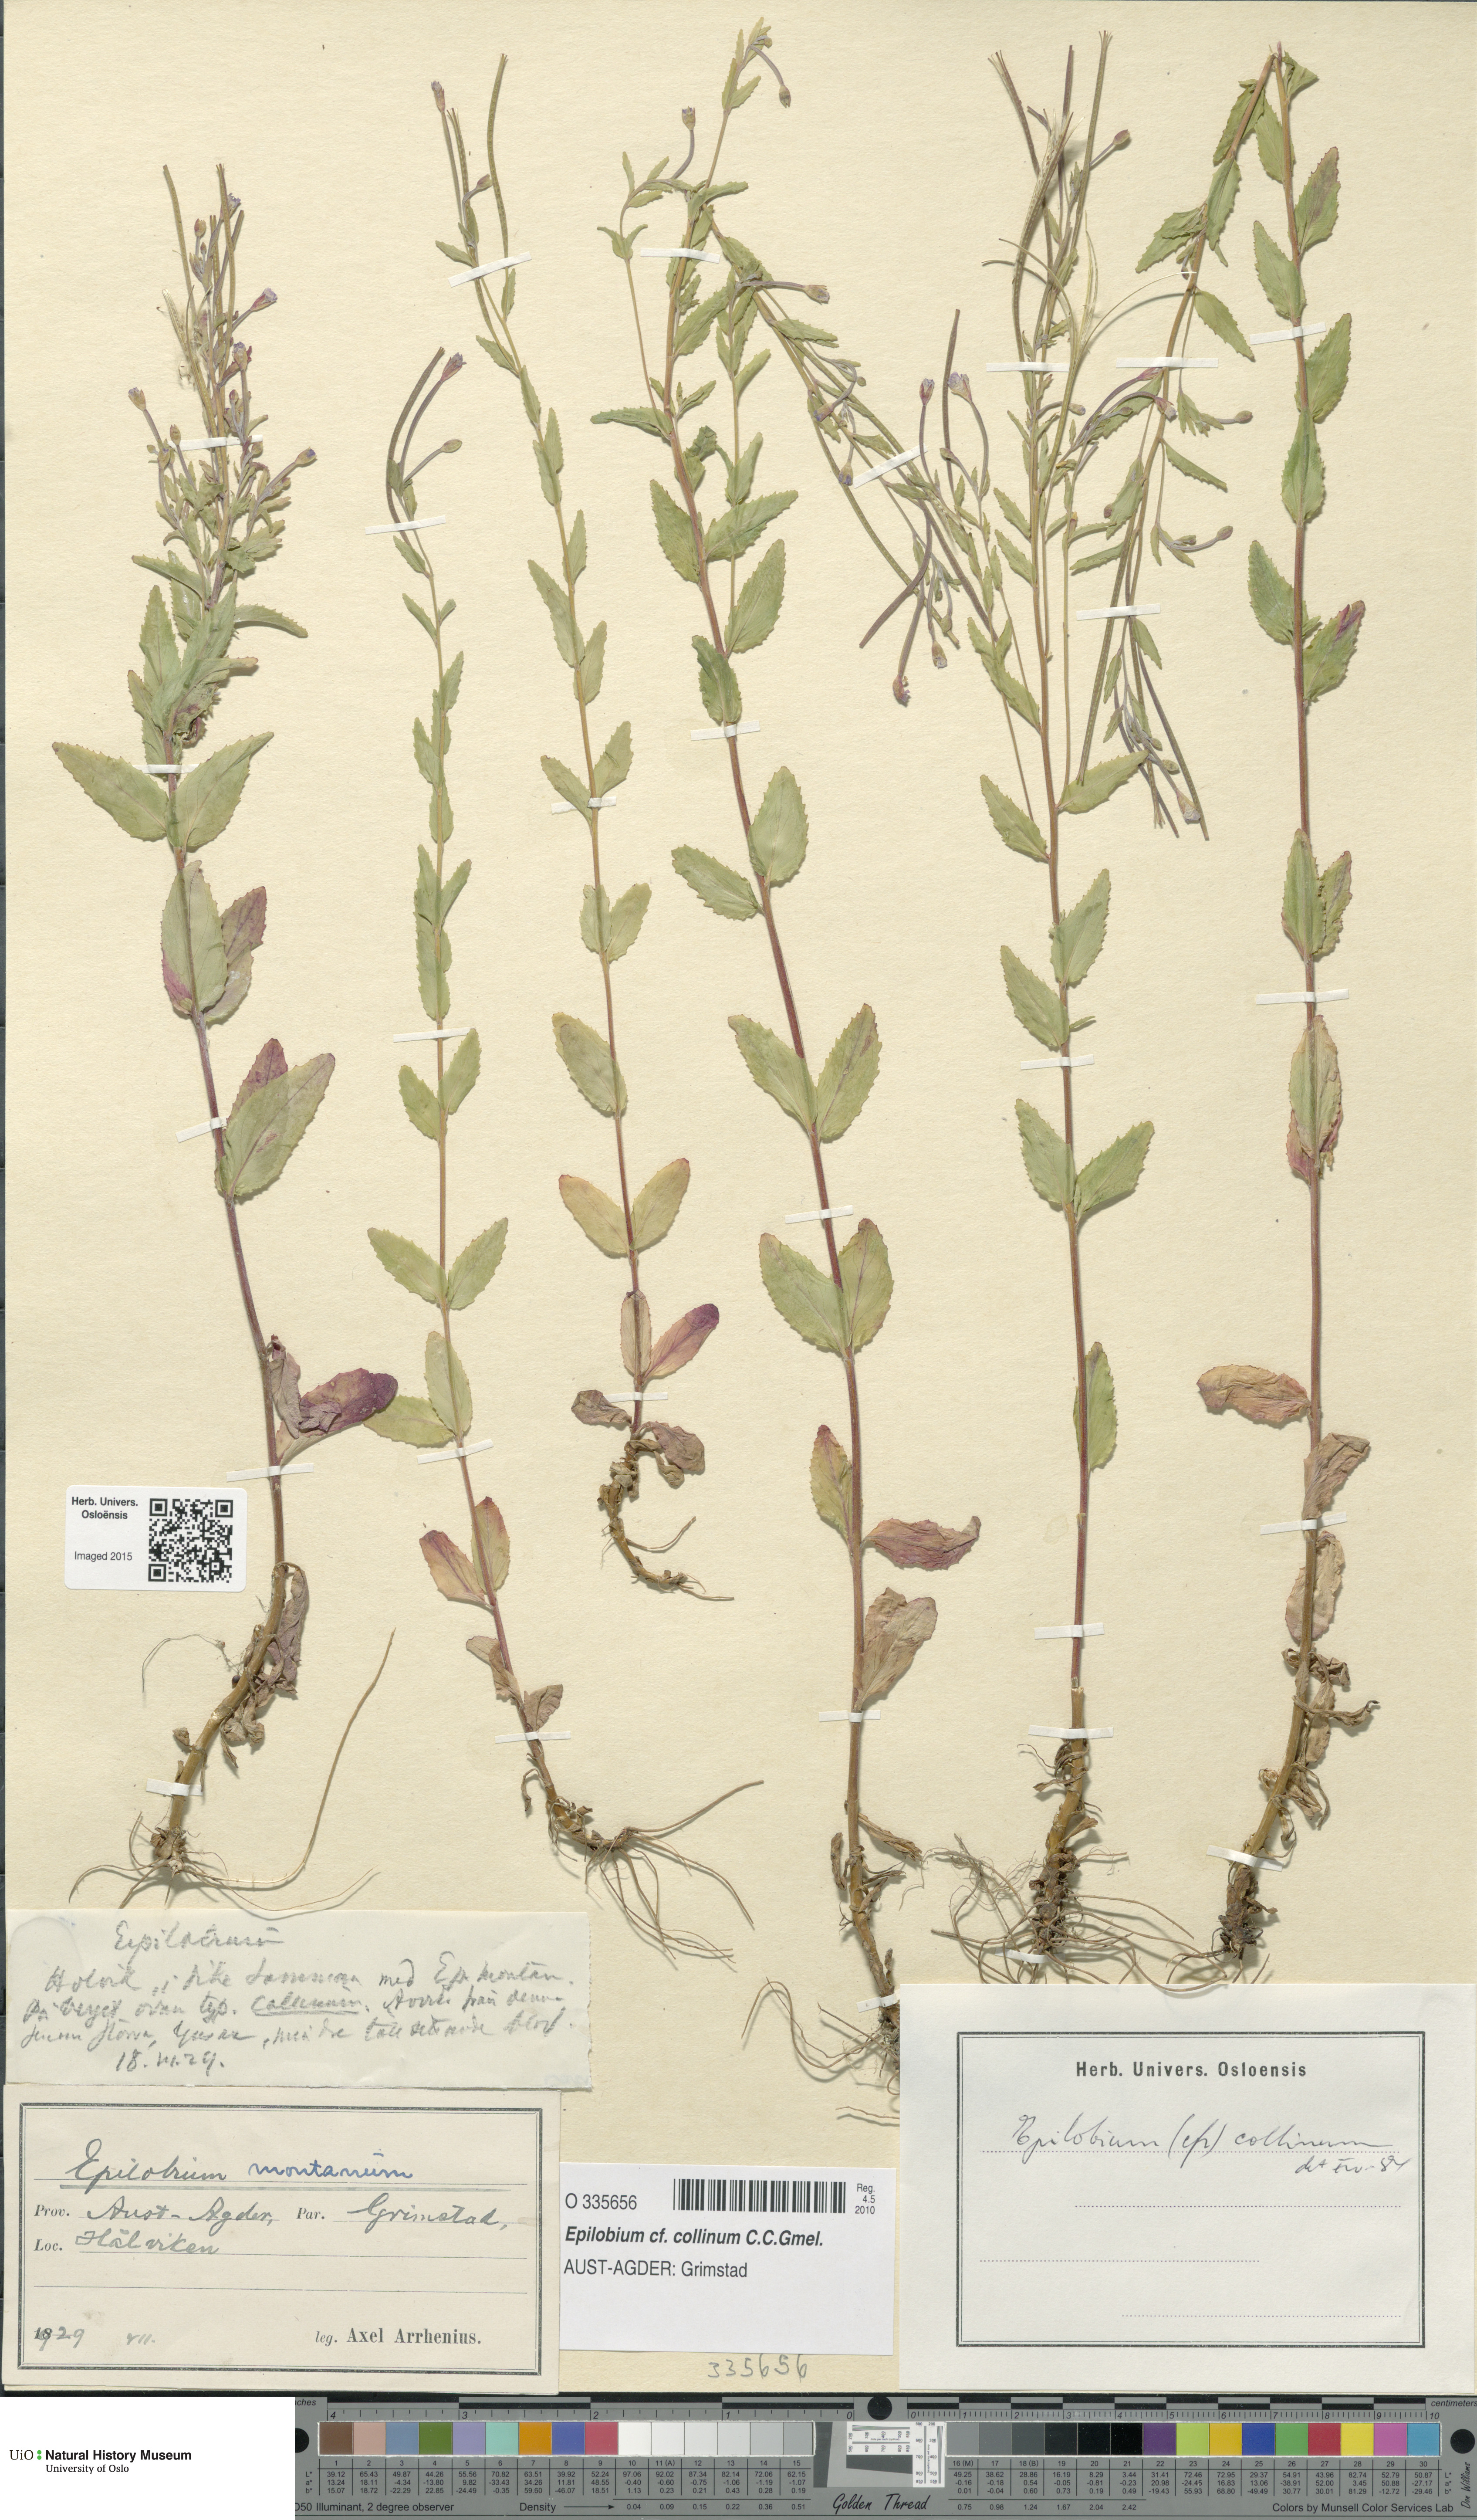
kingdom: Plantae
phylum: Tracheophyta
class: Magnoliopsida
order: Myrtales
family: Onagraceae
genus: Epilobium
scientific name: Epilobium collinum
